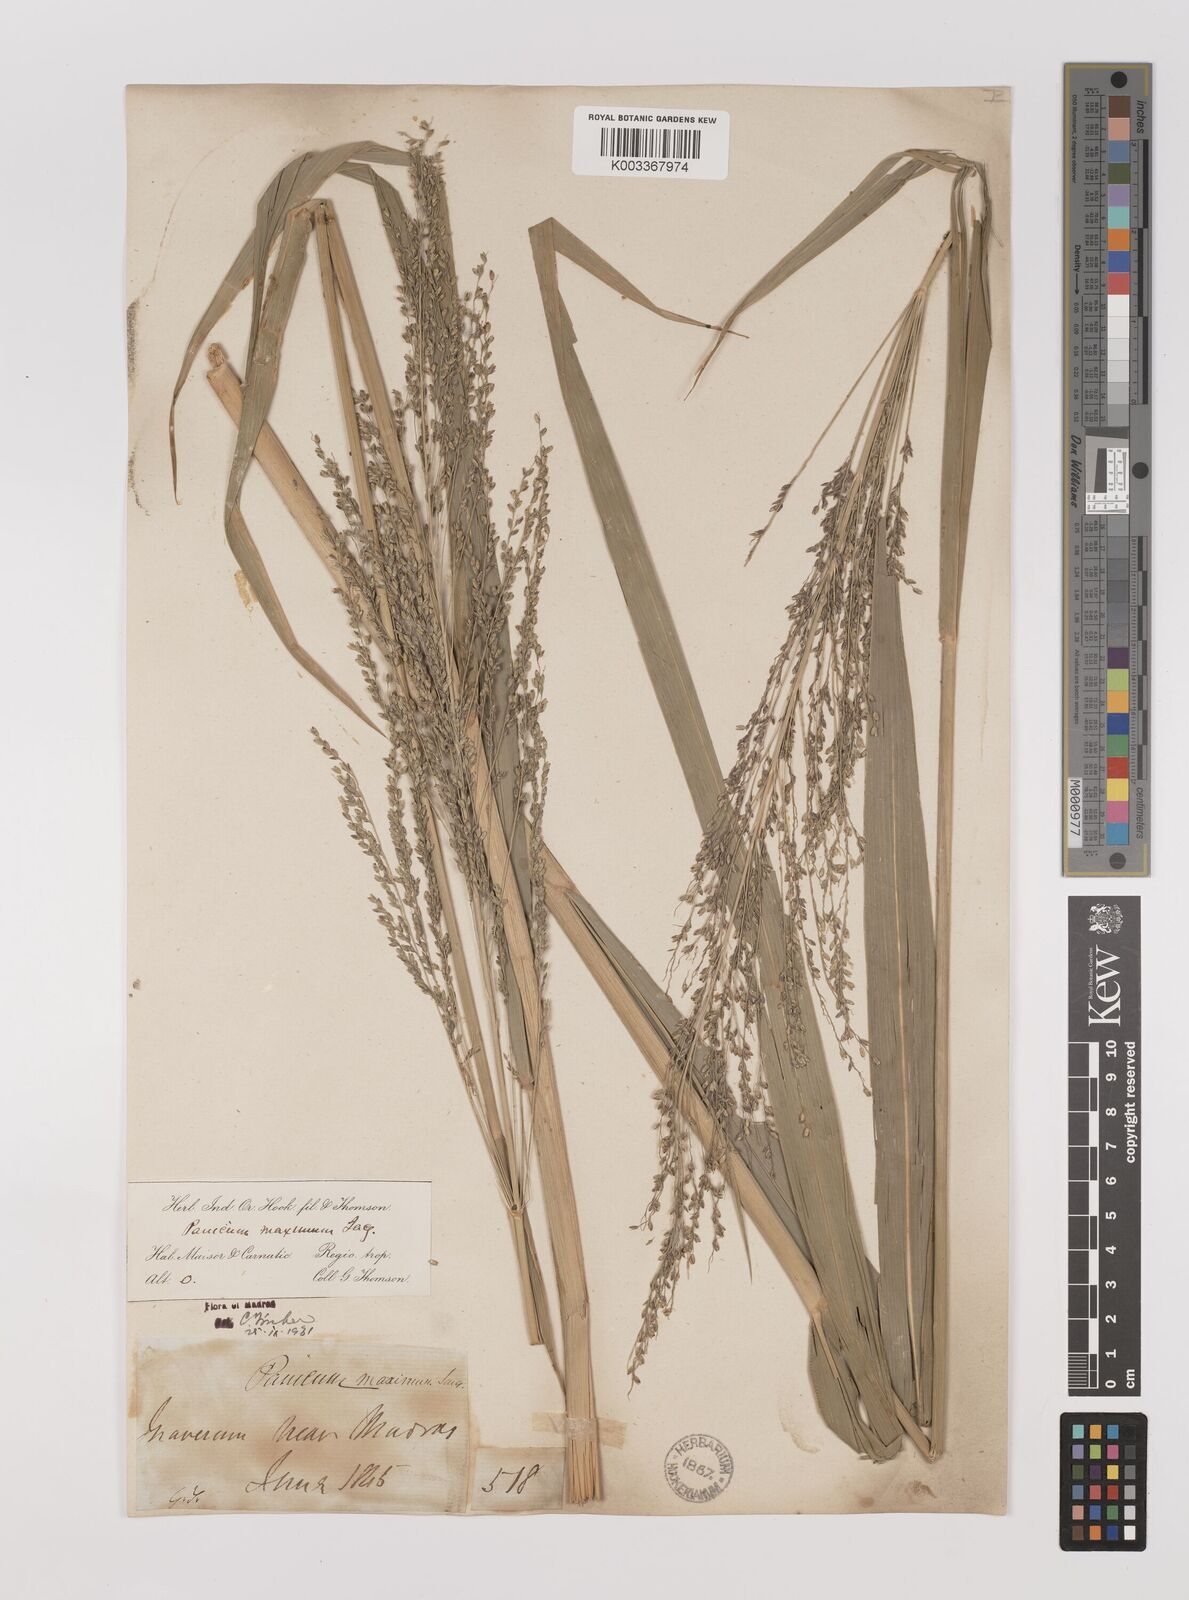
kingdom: Plantae
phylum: Tracheophyta
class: Liliopsida
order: Poales
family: Poaceae
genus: Megathyrsus
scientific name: Megathyrsus maximus
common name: Guineagrass
